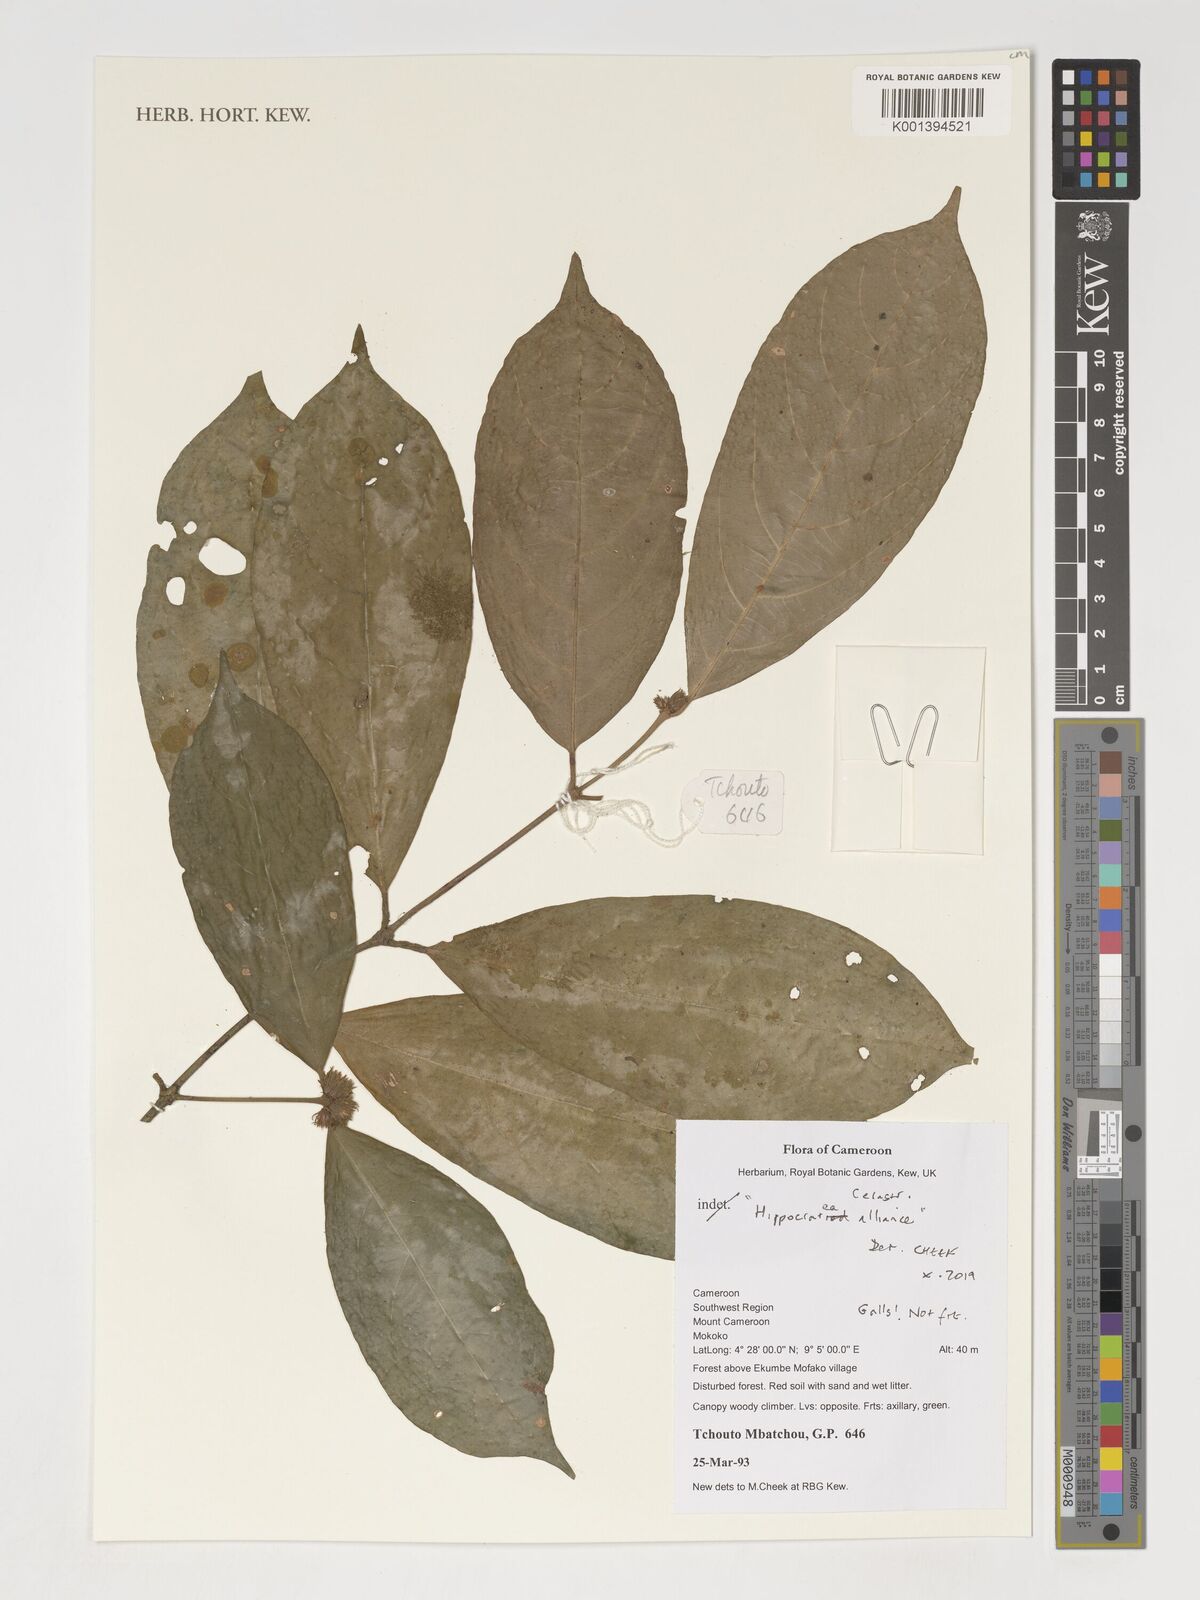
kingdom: Plantae
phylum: Tracheophyta
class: Magnoliopsida
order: Celastrales
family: Celastraceae
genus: Hippocratea
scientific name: Hippocratea
